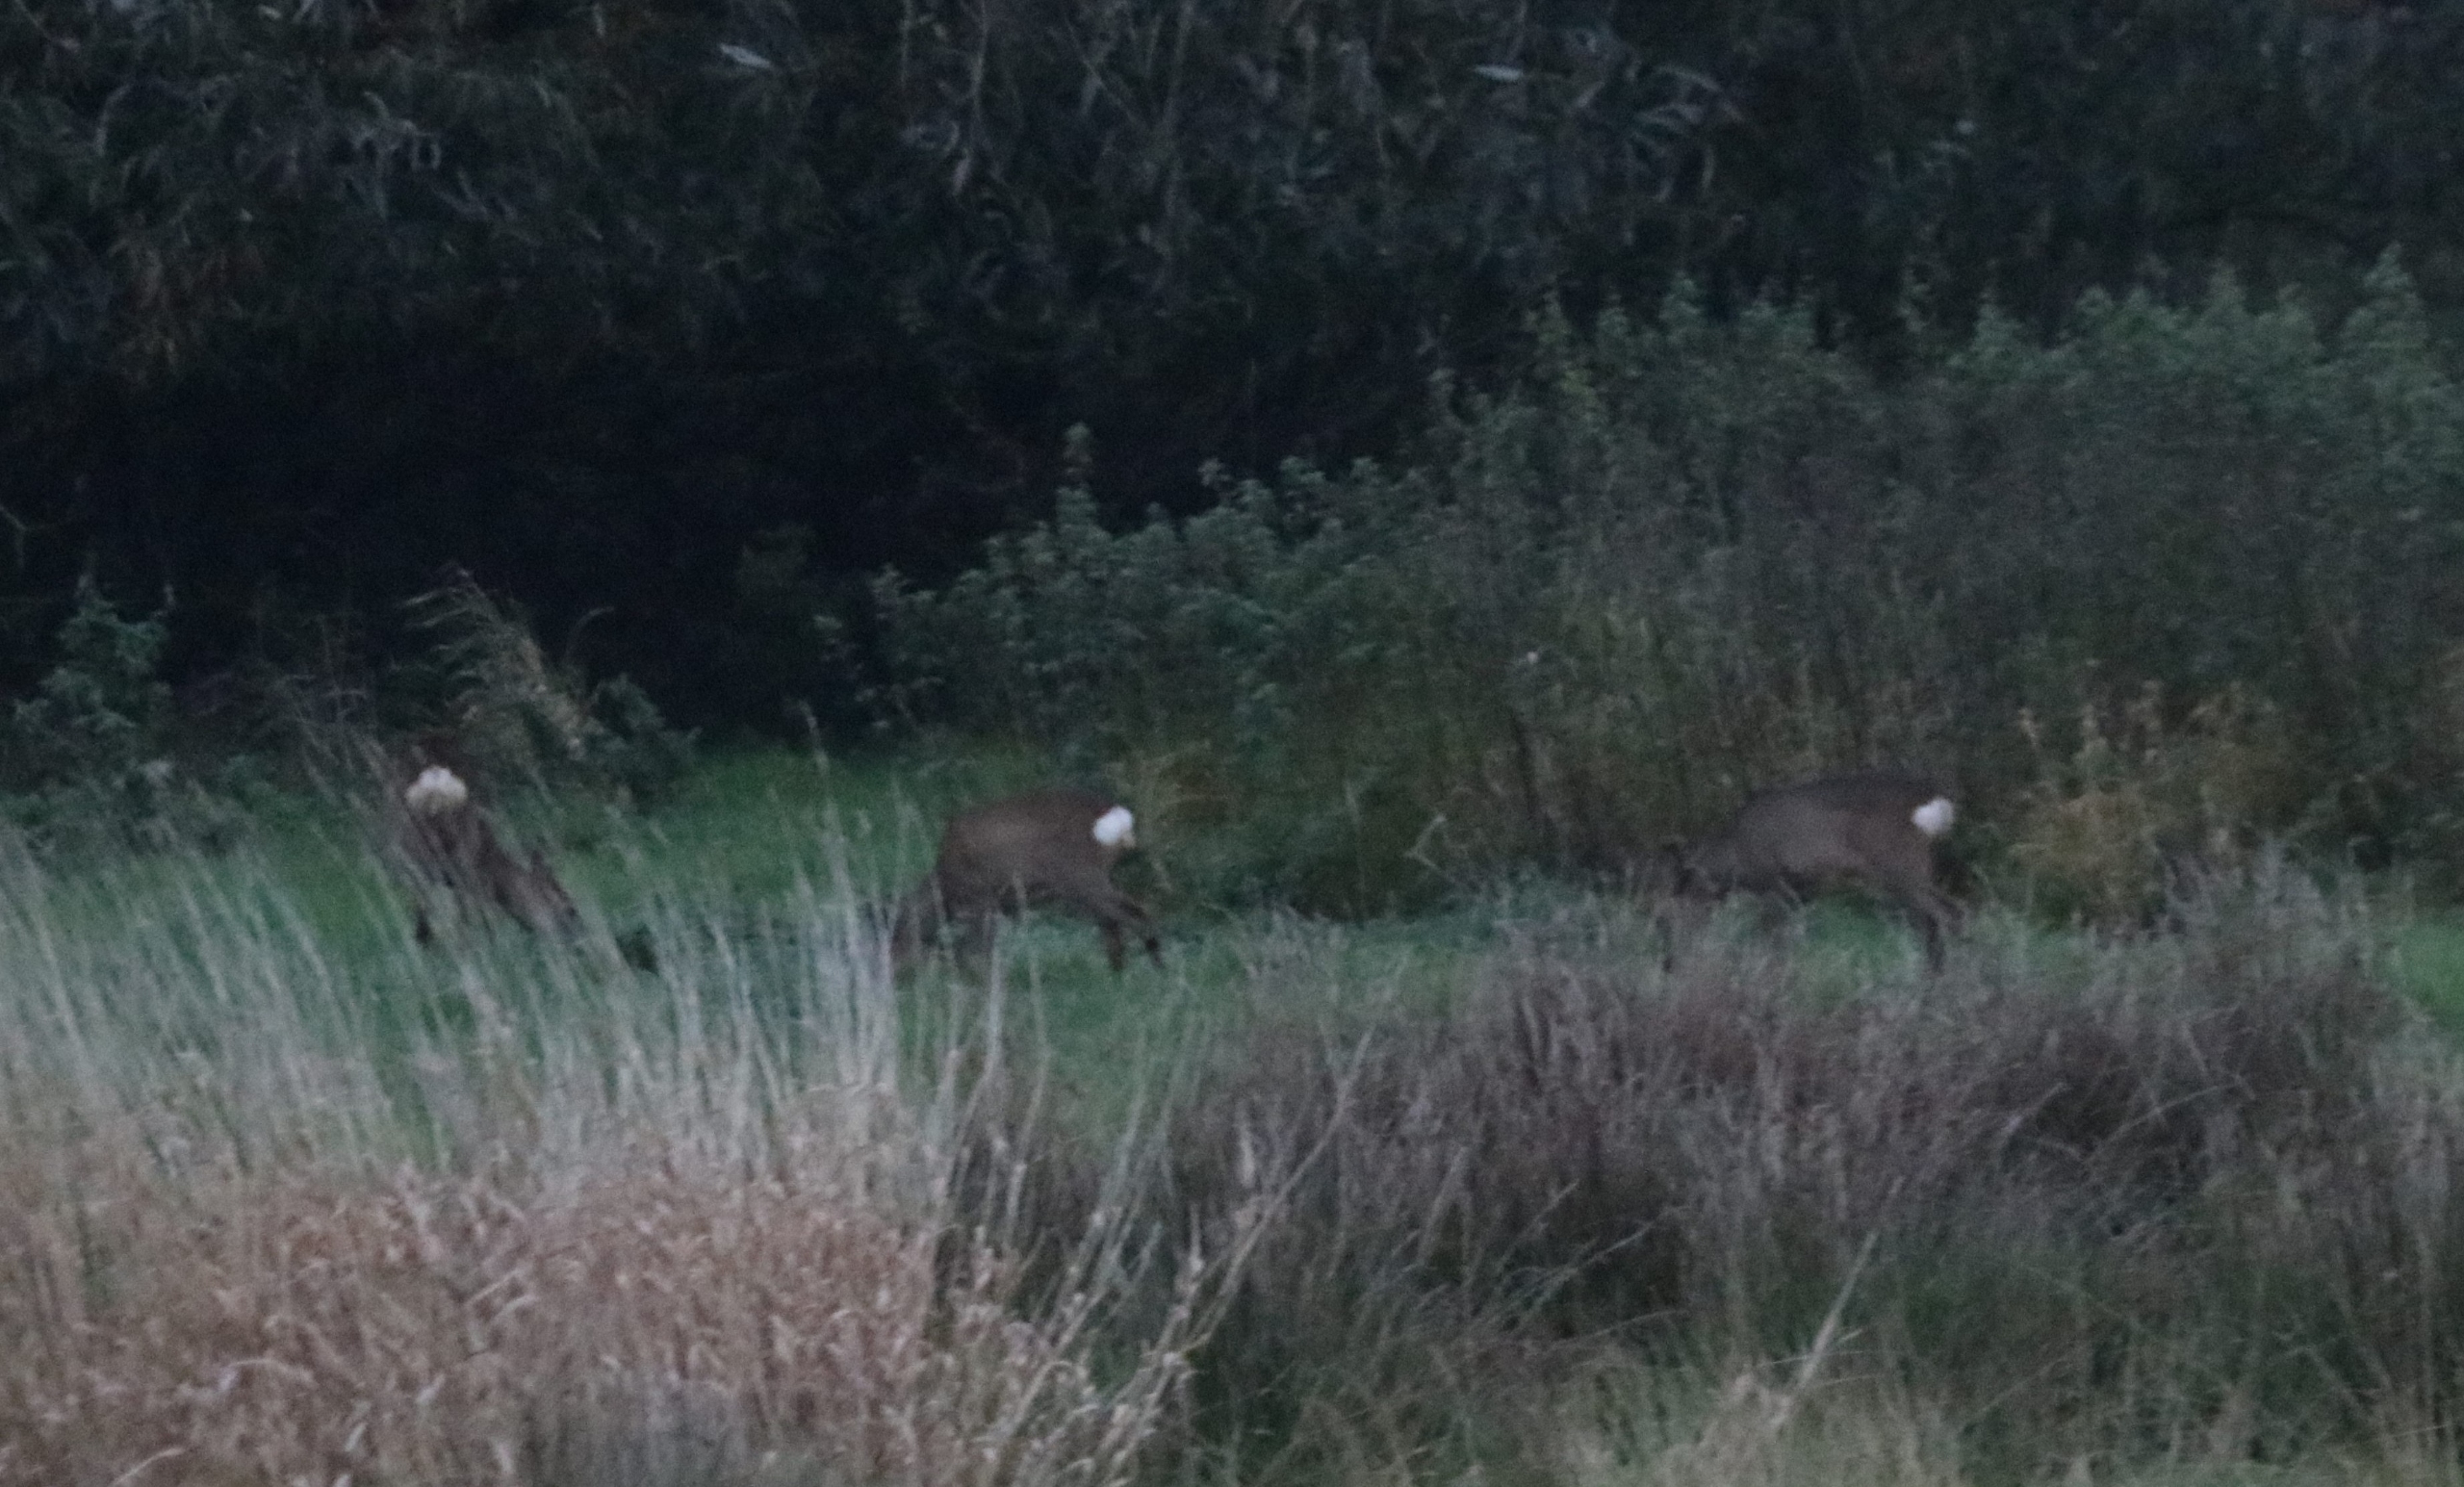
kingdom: Animalia
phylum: Chordata
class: Mammalia
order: Artiodactyla
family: Cervidae
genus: Capreolus
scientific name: Capreolus capreolus
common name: Rådyr
